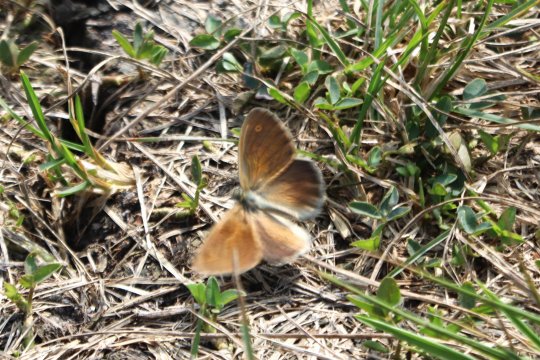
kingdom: Animalia
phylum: Arthropoda
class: Insecta
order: Lepidoptera
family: Nymphalidae
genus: Coenonympha
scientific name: Coenonympha tullia
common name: Large Heath
